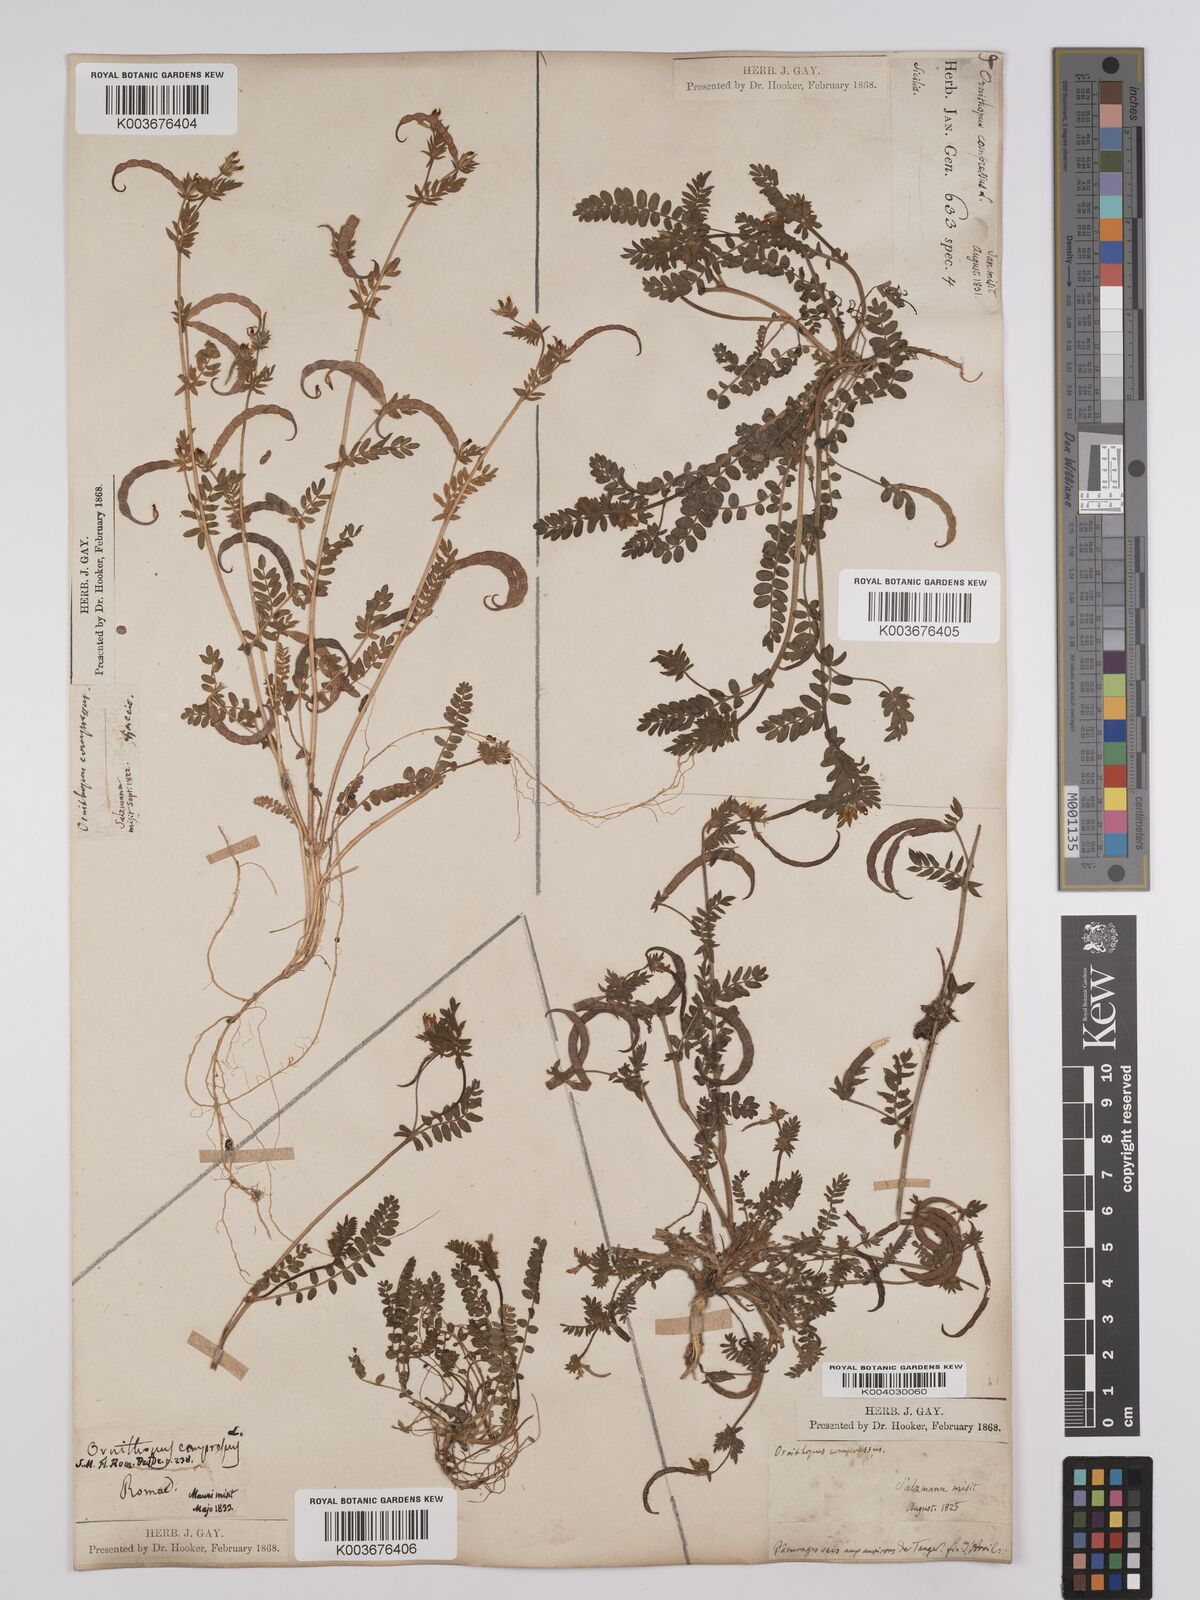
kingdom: Plantae
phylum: Tracheophyta
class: Magnoliopsida
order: Fabales
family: Fabaceae
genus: Ornithopus
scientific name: Ornithopus compressus
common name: Yellow serradella
